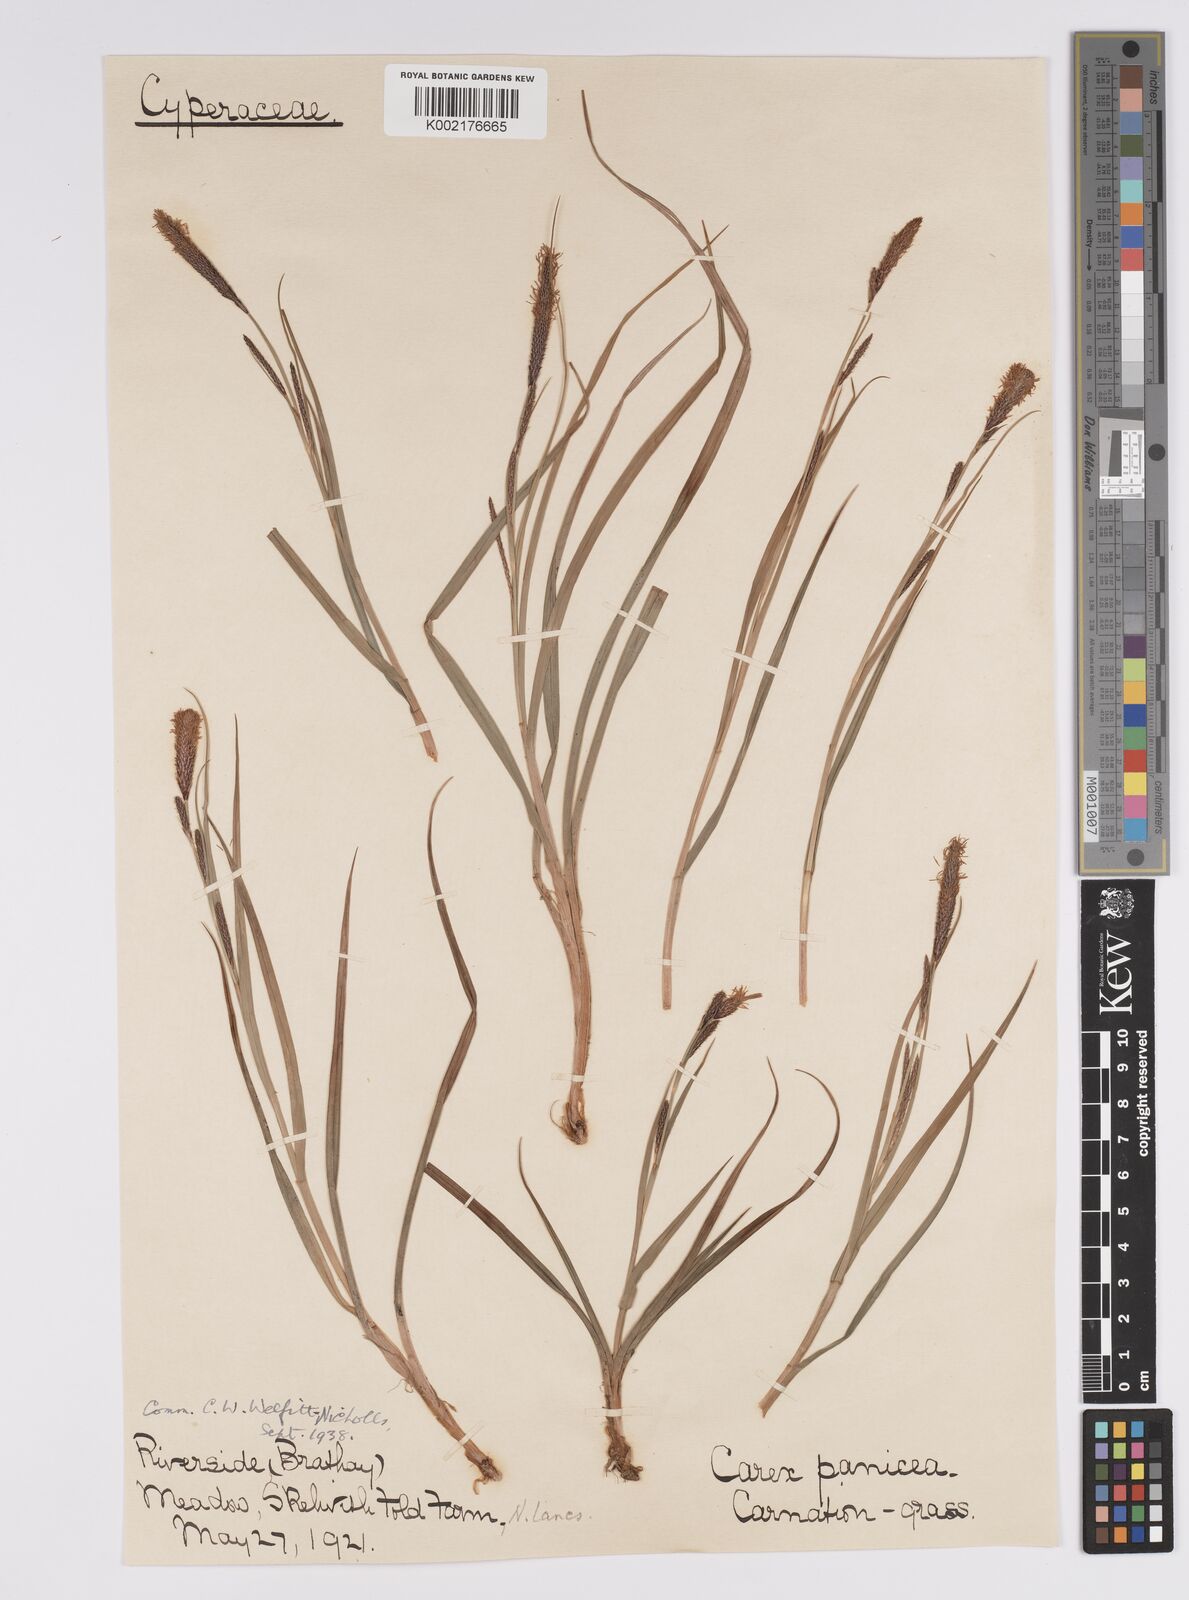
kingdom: Plantae
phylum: Tracheophyta
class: Liliopsida
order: Poales
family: Cyperaceae
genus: Carex
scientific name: Carex binervis
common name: Green-ribbed sedge
